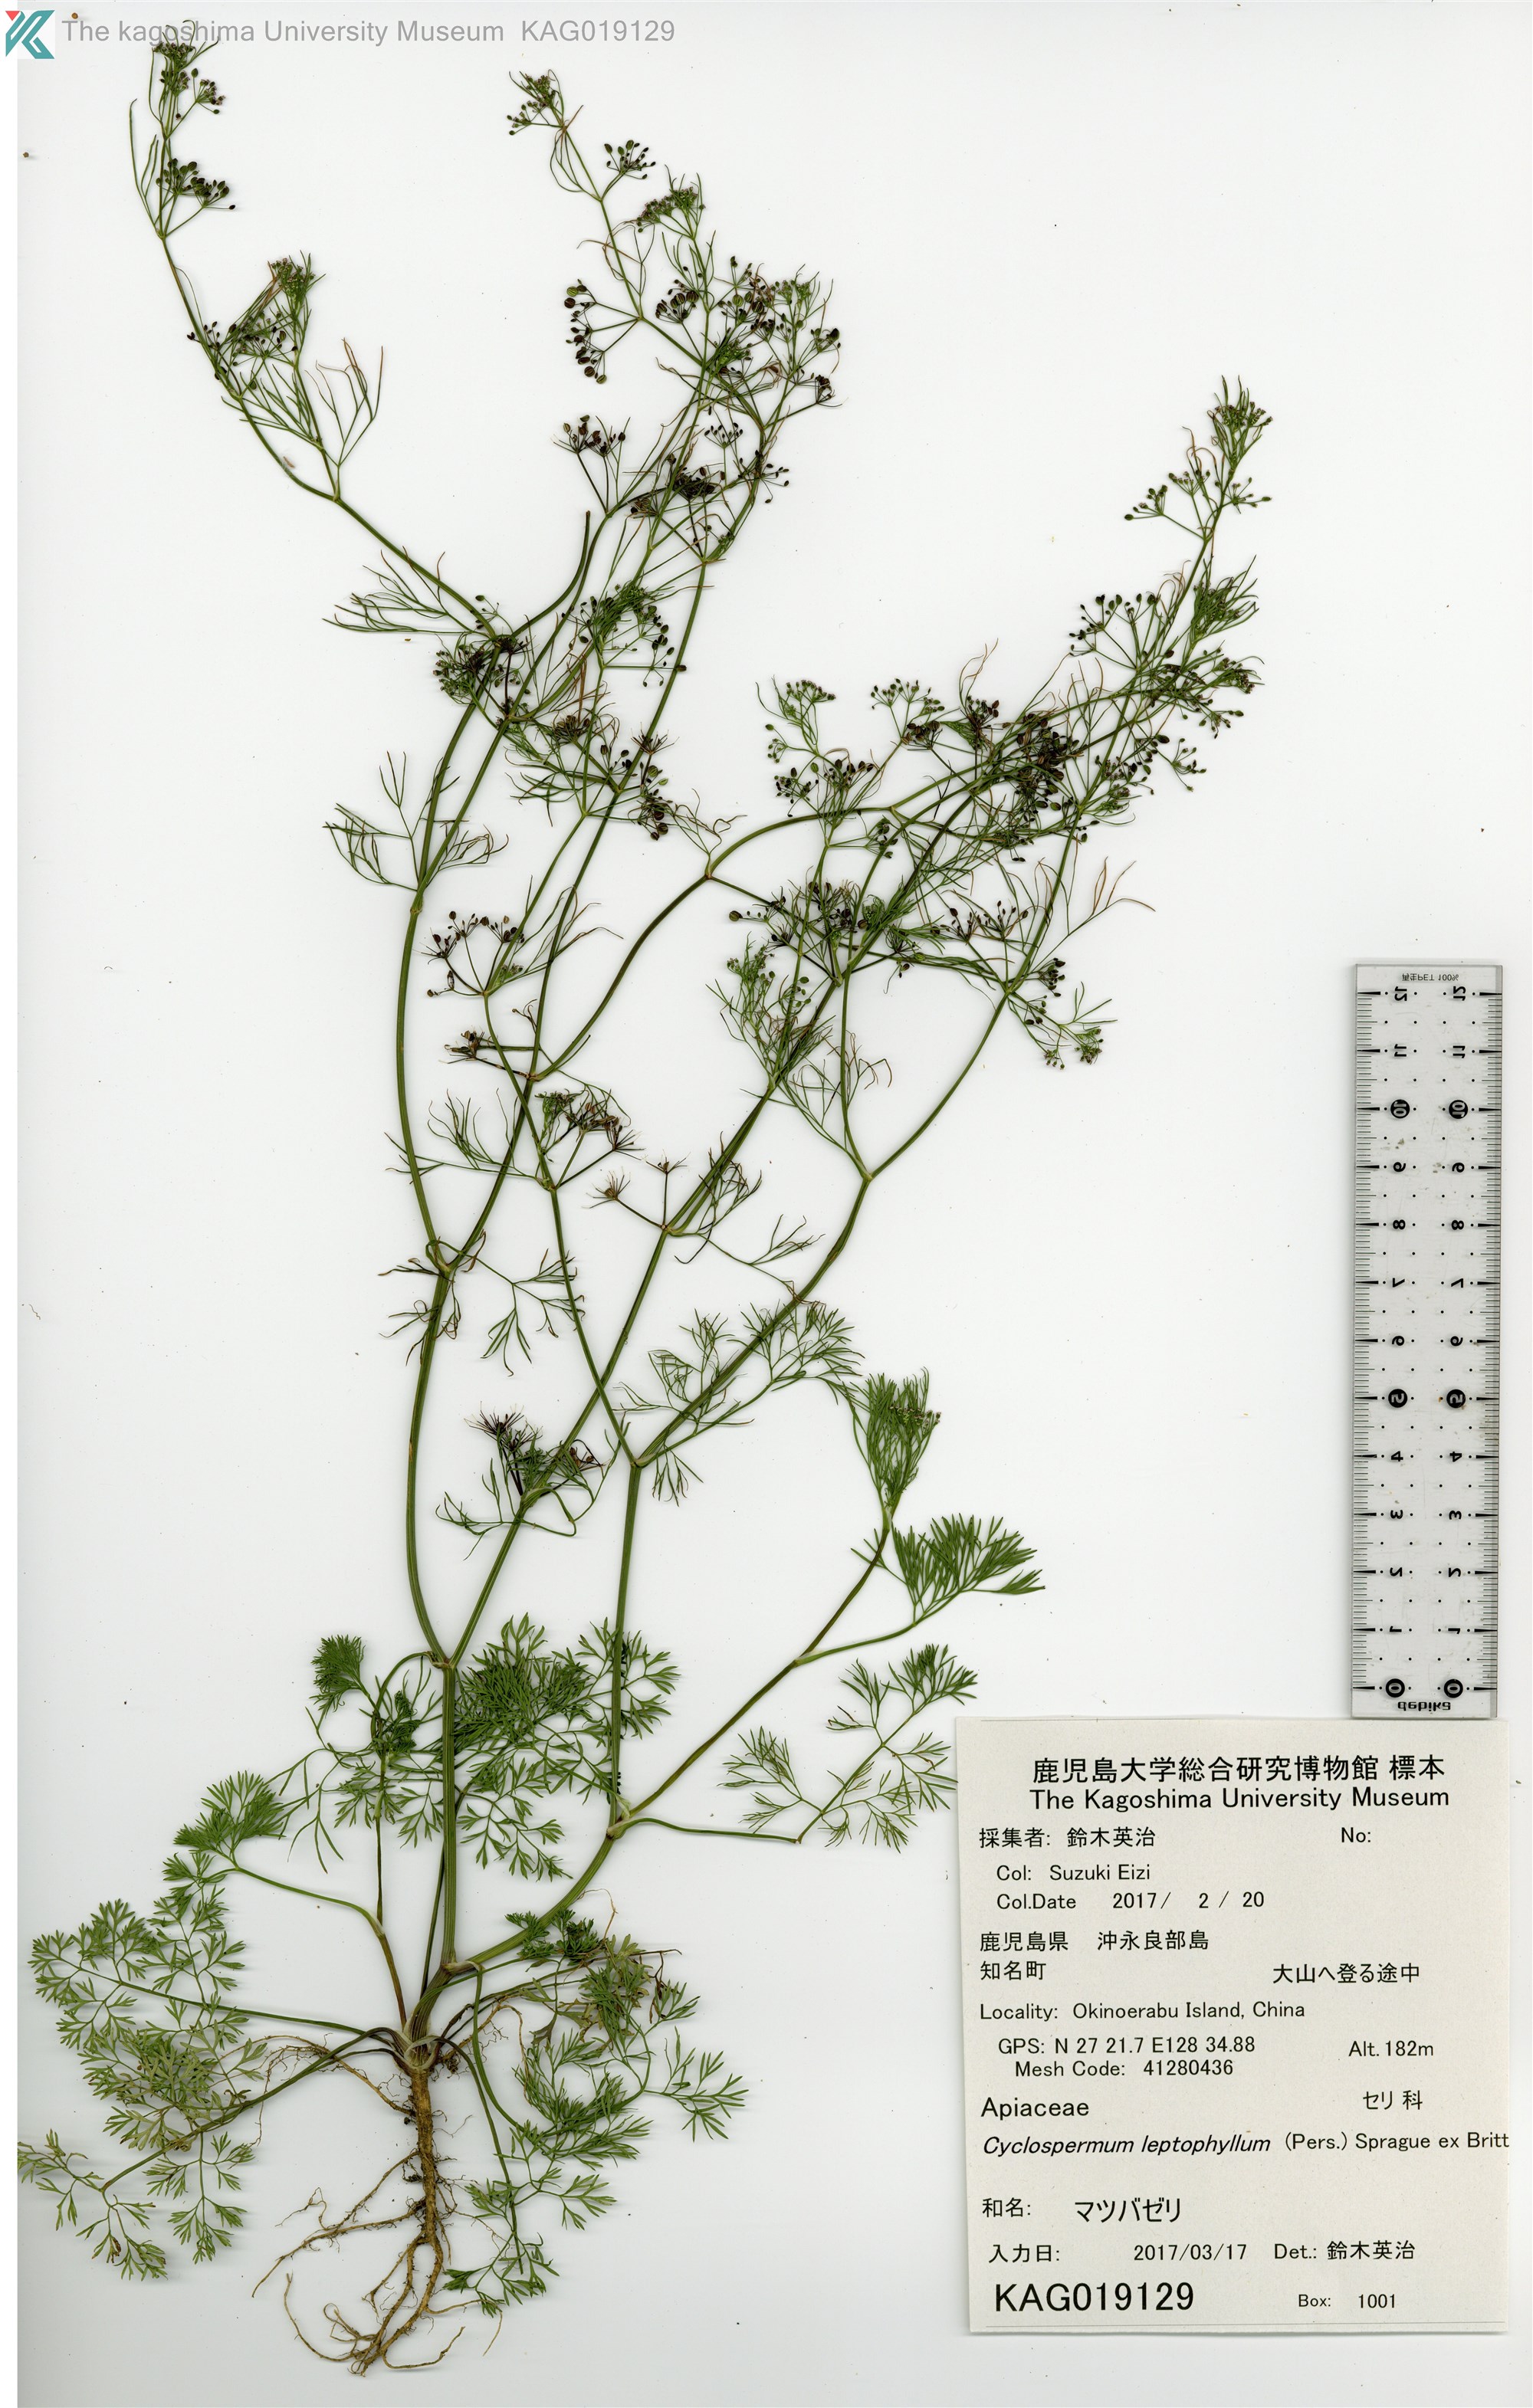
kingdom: Plantae
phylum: Tracheophyta
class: Magnoliopsida
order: Apiales
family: Apiaceae
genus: Cyclospermum
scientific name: Cyclospermum leptophyllum
